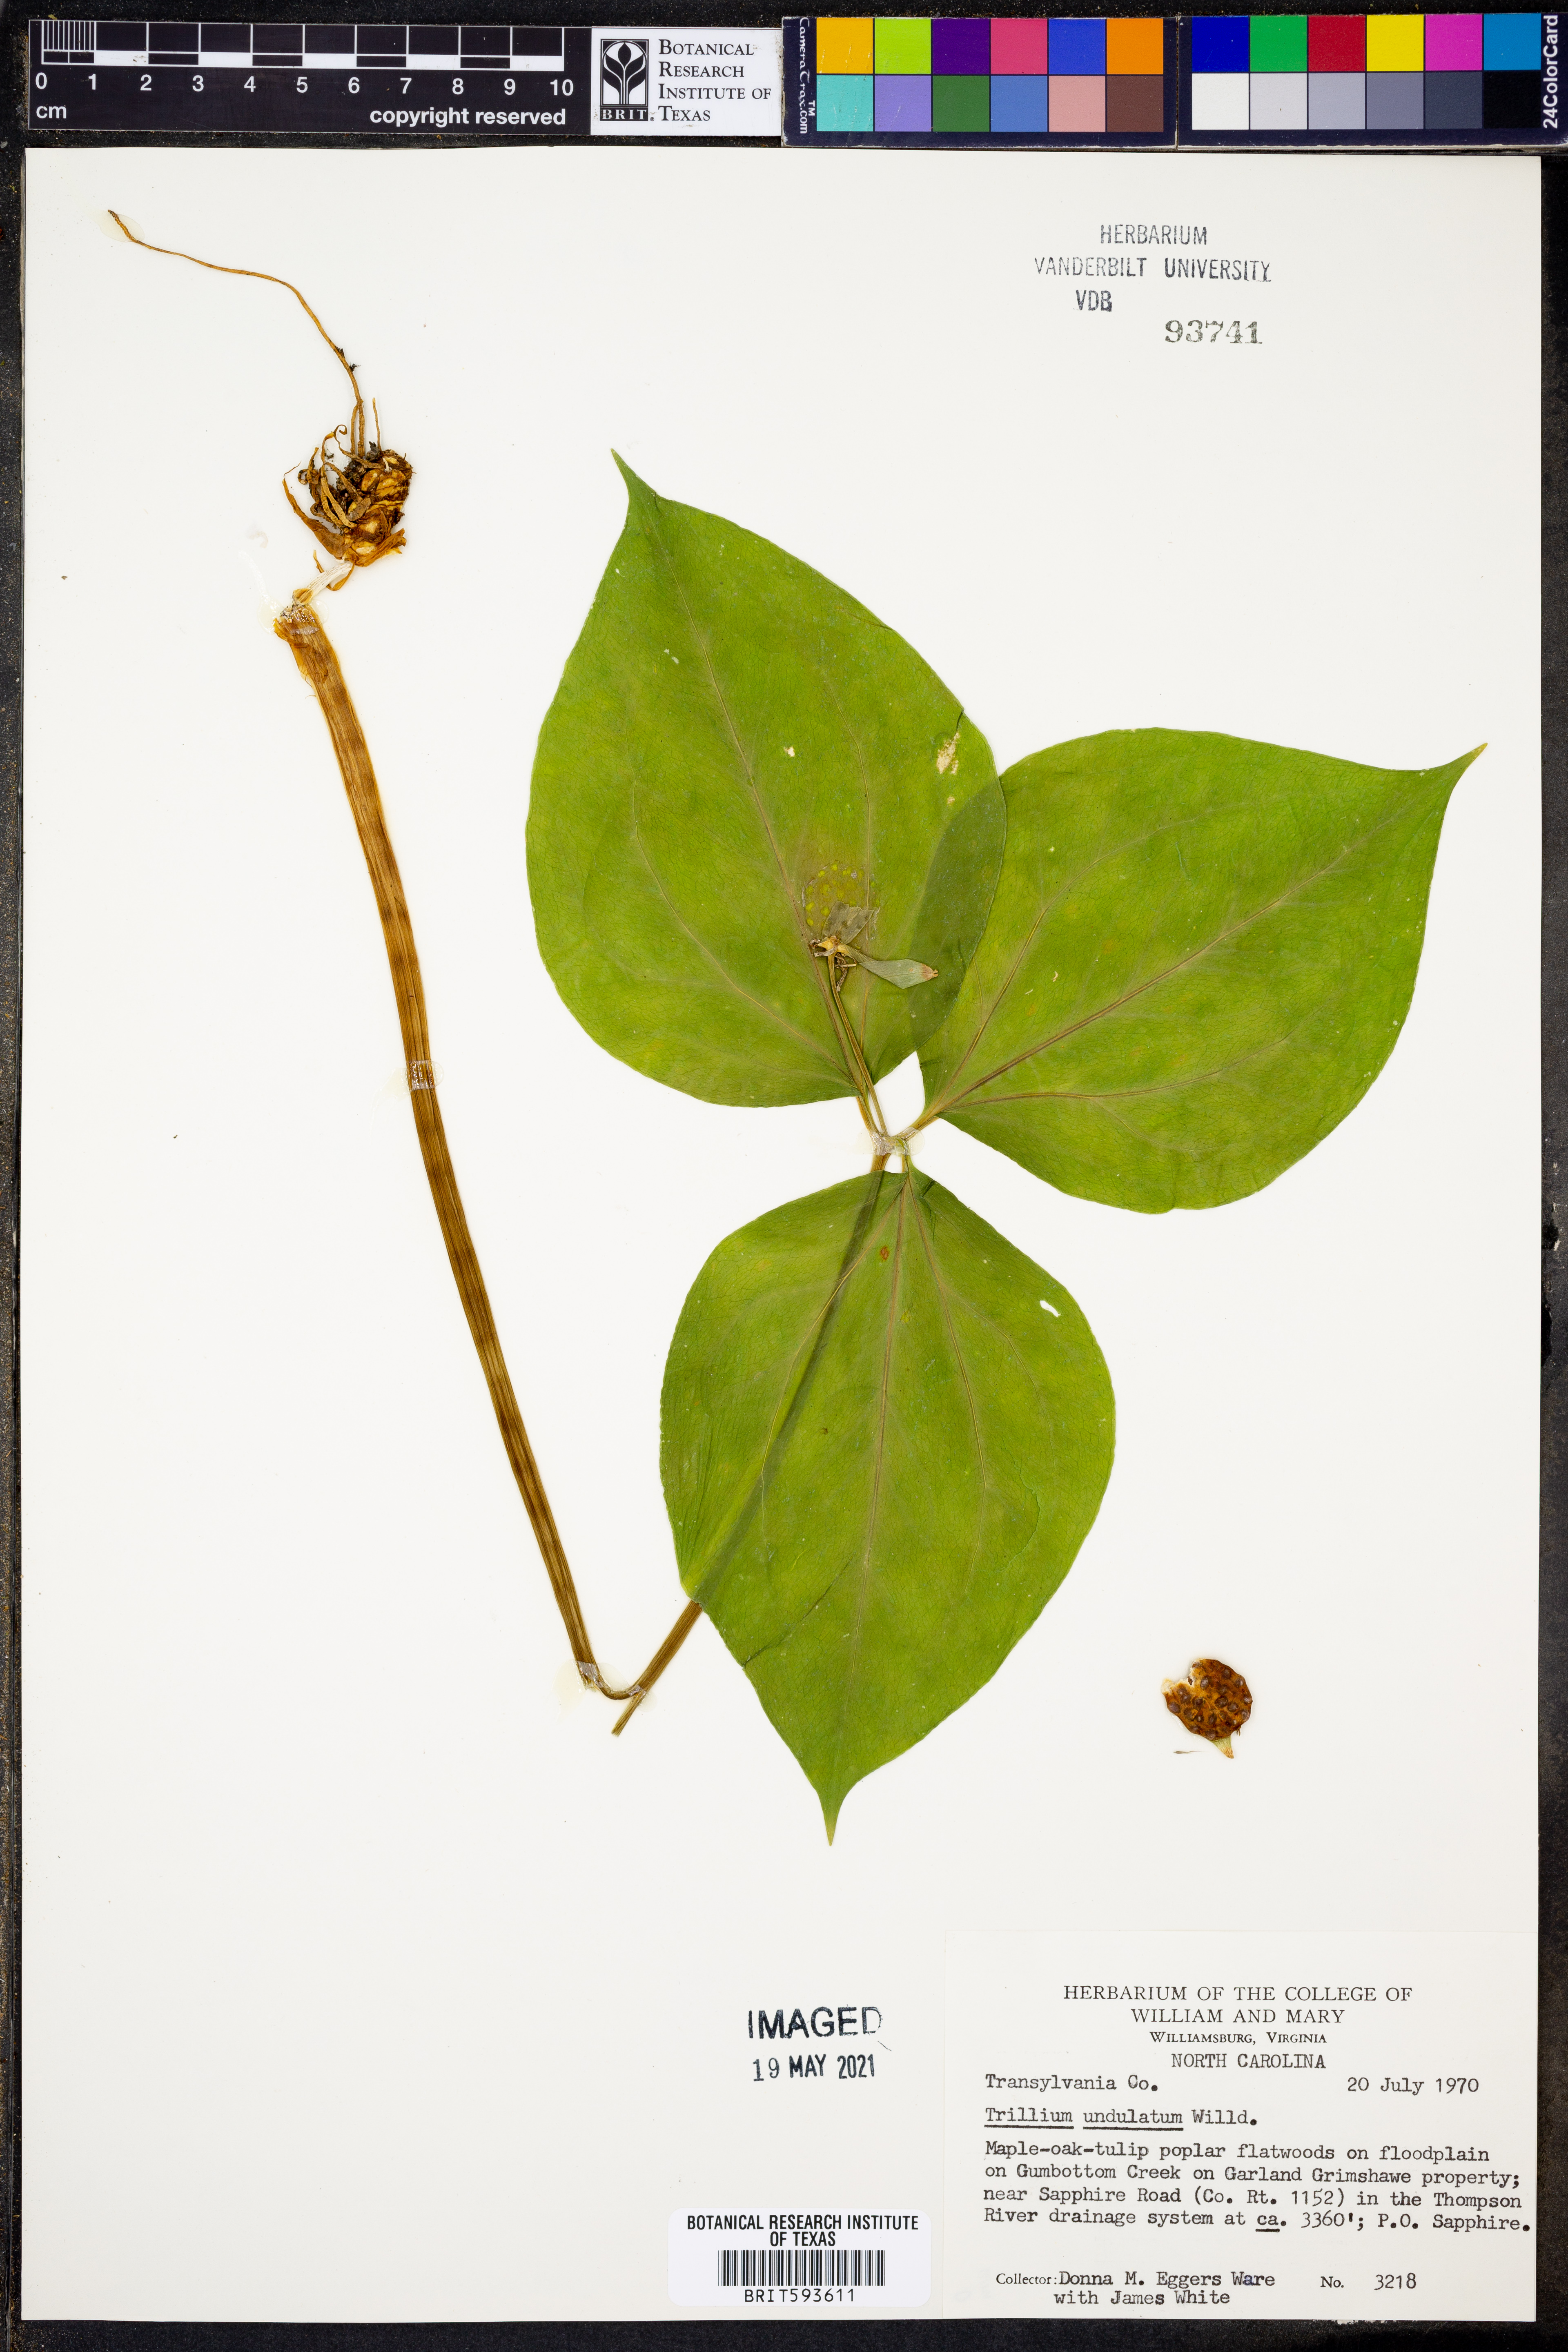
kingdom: Plantae
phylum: Tracheophyta
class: Liliopsida
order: Liliales
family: Melanthiaceae
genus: Trillium
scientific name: Trillium undulatum
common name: Paint trillium
